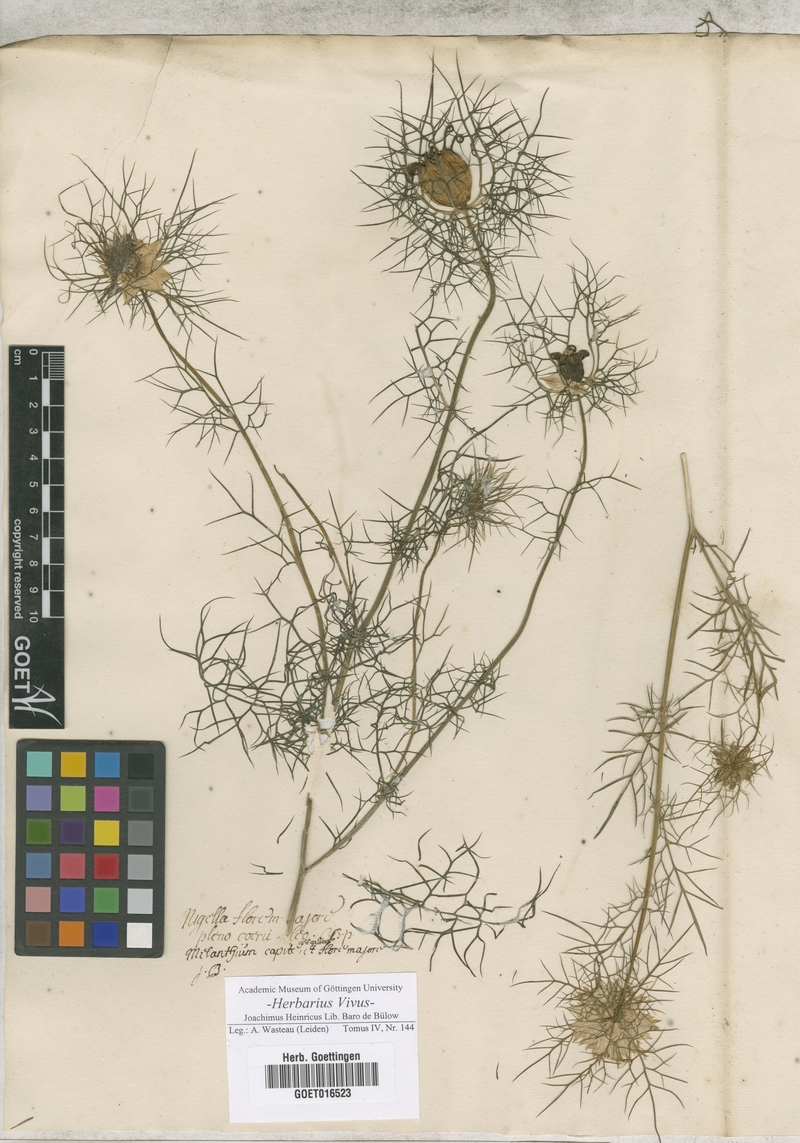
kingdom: Plantae
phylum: Tracheophyta
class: Magnoliopsida
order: Ranunculales
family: Ranunculaceae
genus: Nigella
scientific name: Nigella damascena
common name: Love-in-a-mist
